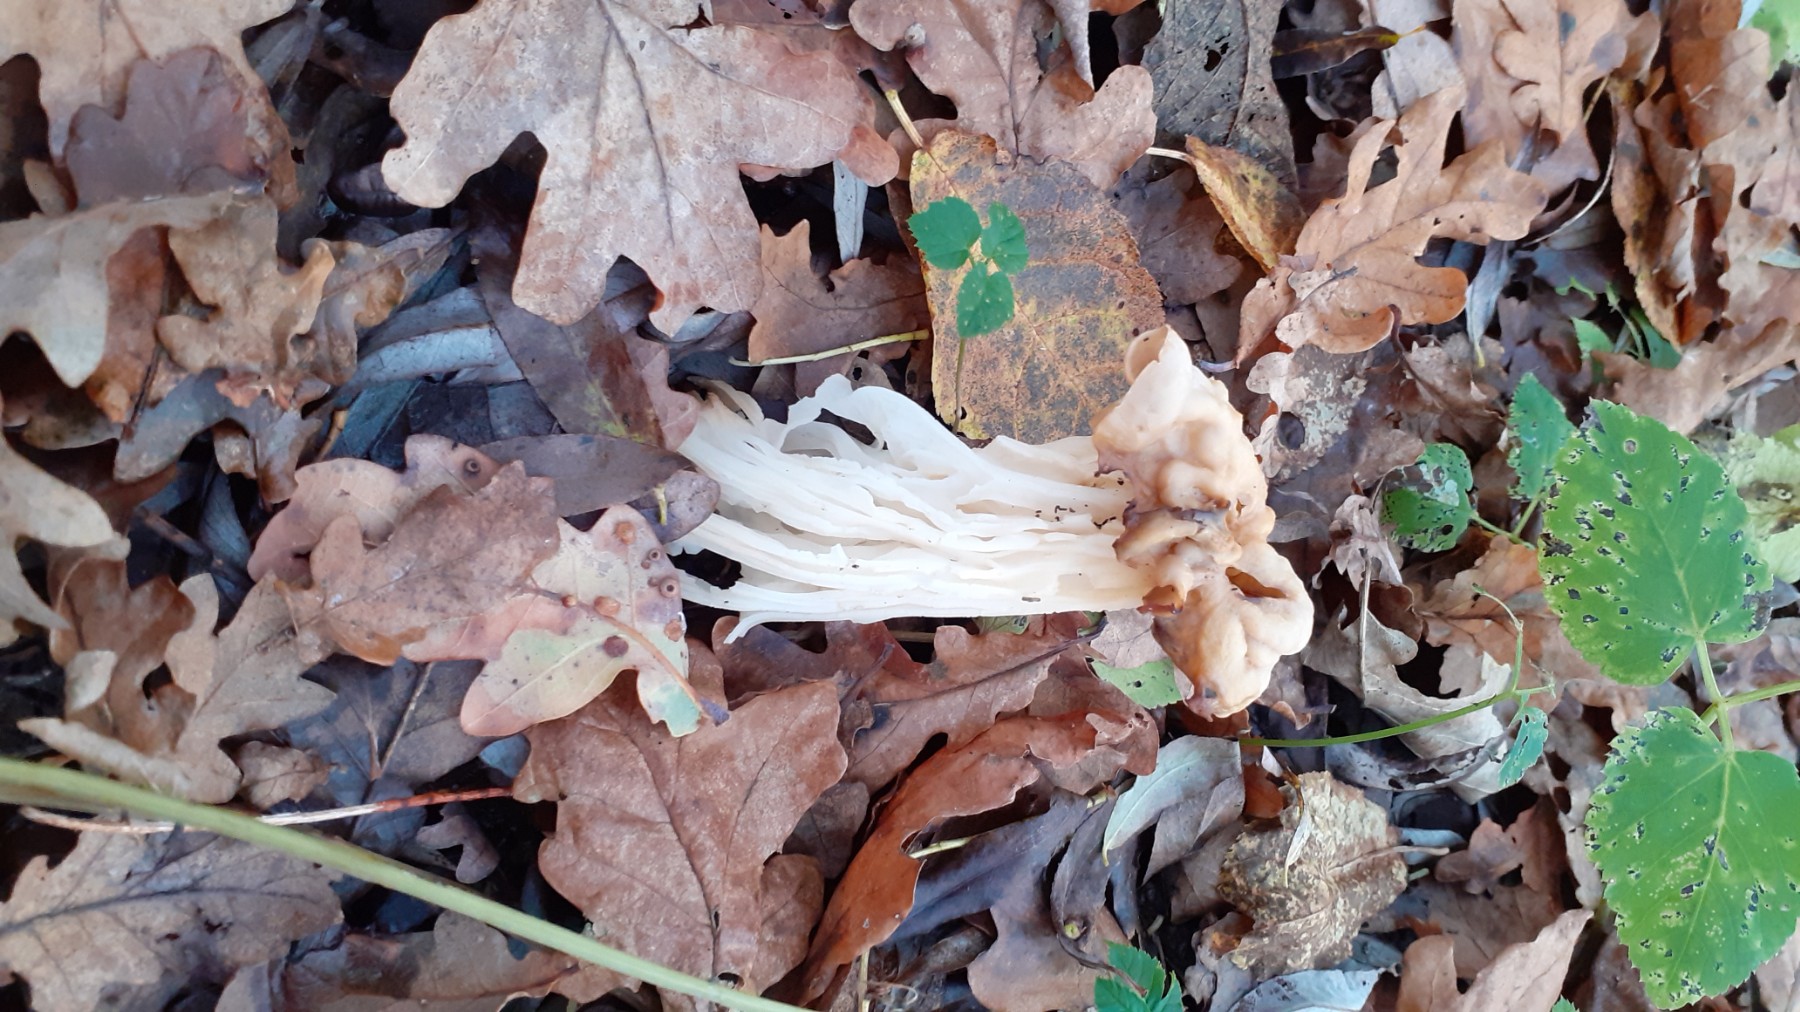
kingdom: Fungi
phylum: Ascomycota
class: Pezizomycetes
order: Pezizales
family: Helvellaceae
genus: Helvella
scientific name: Helvella crispa
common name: kruset foldhat
